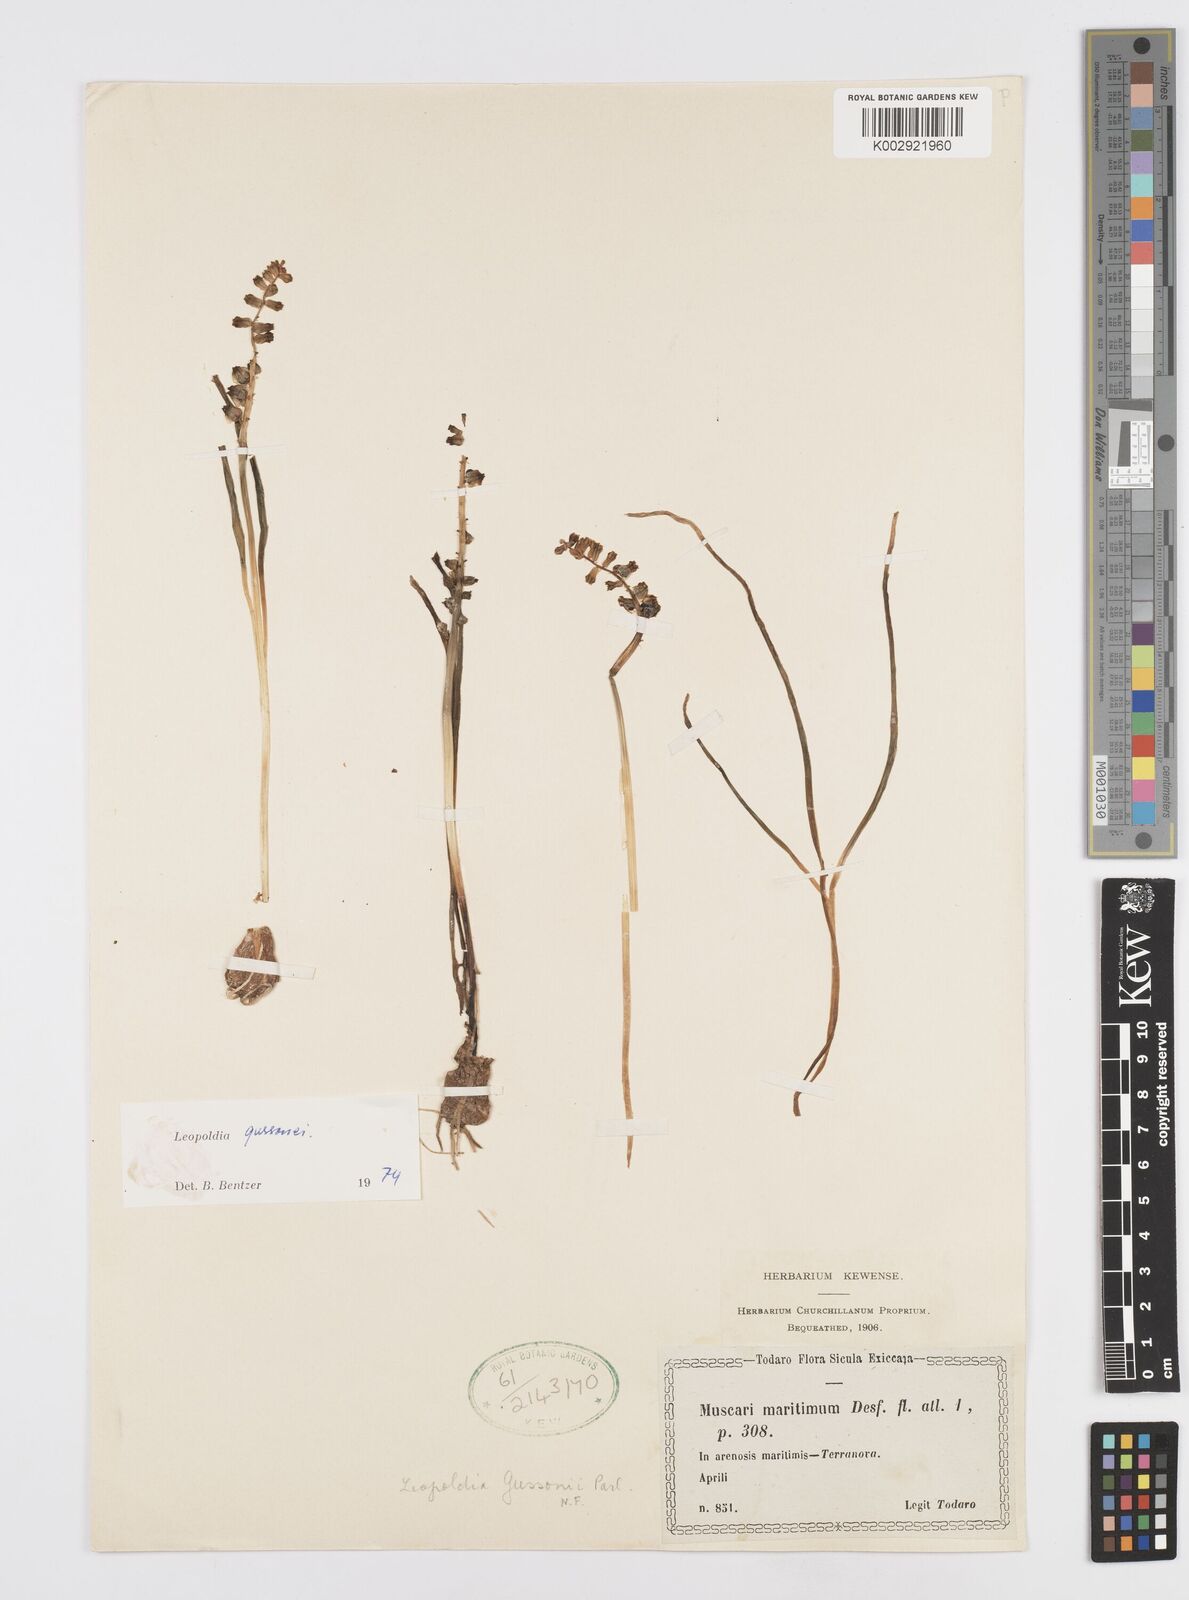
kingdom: Plantae
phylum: Tracheophyta
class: Liliopsida
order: Asparagales
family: Asparagaceae
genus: Muscari
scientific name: Muscari gussonei
